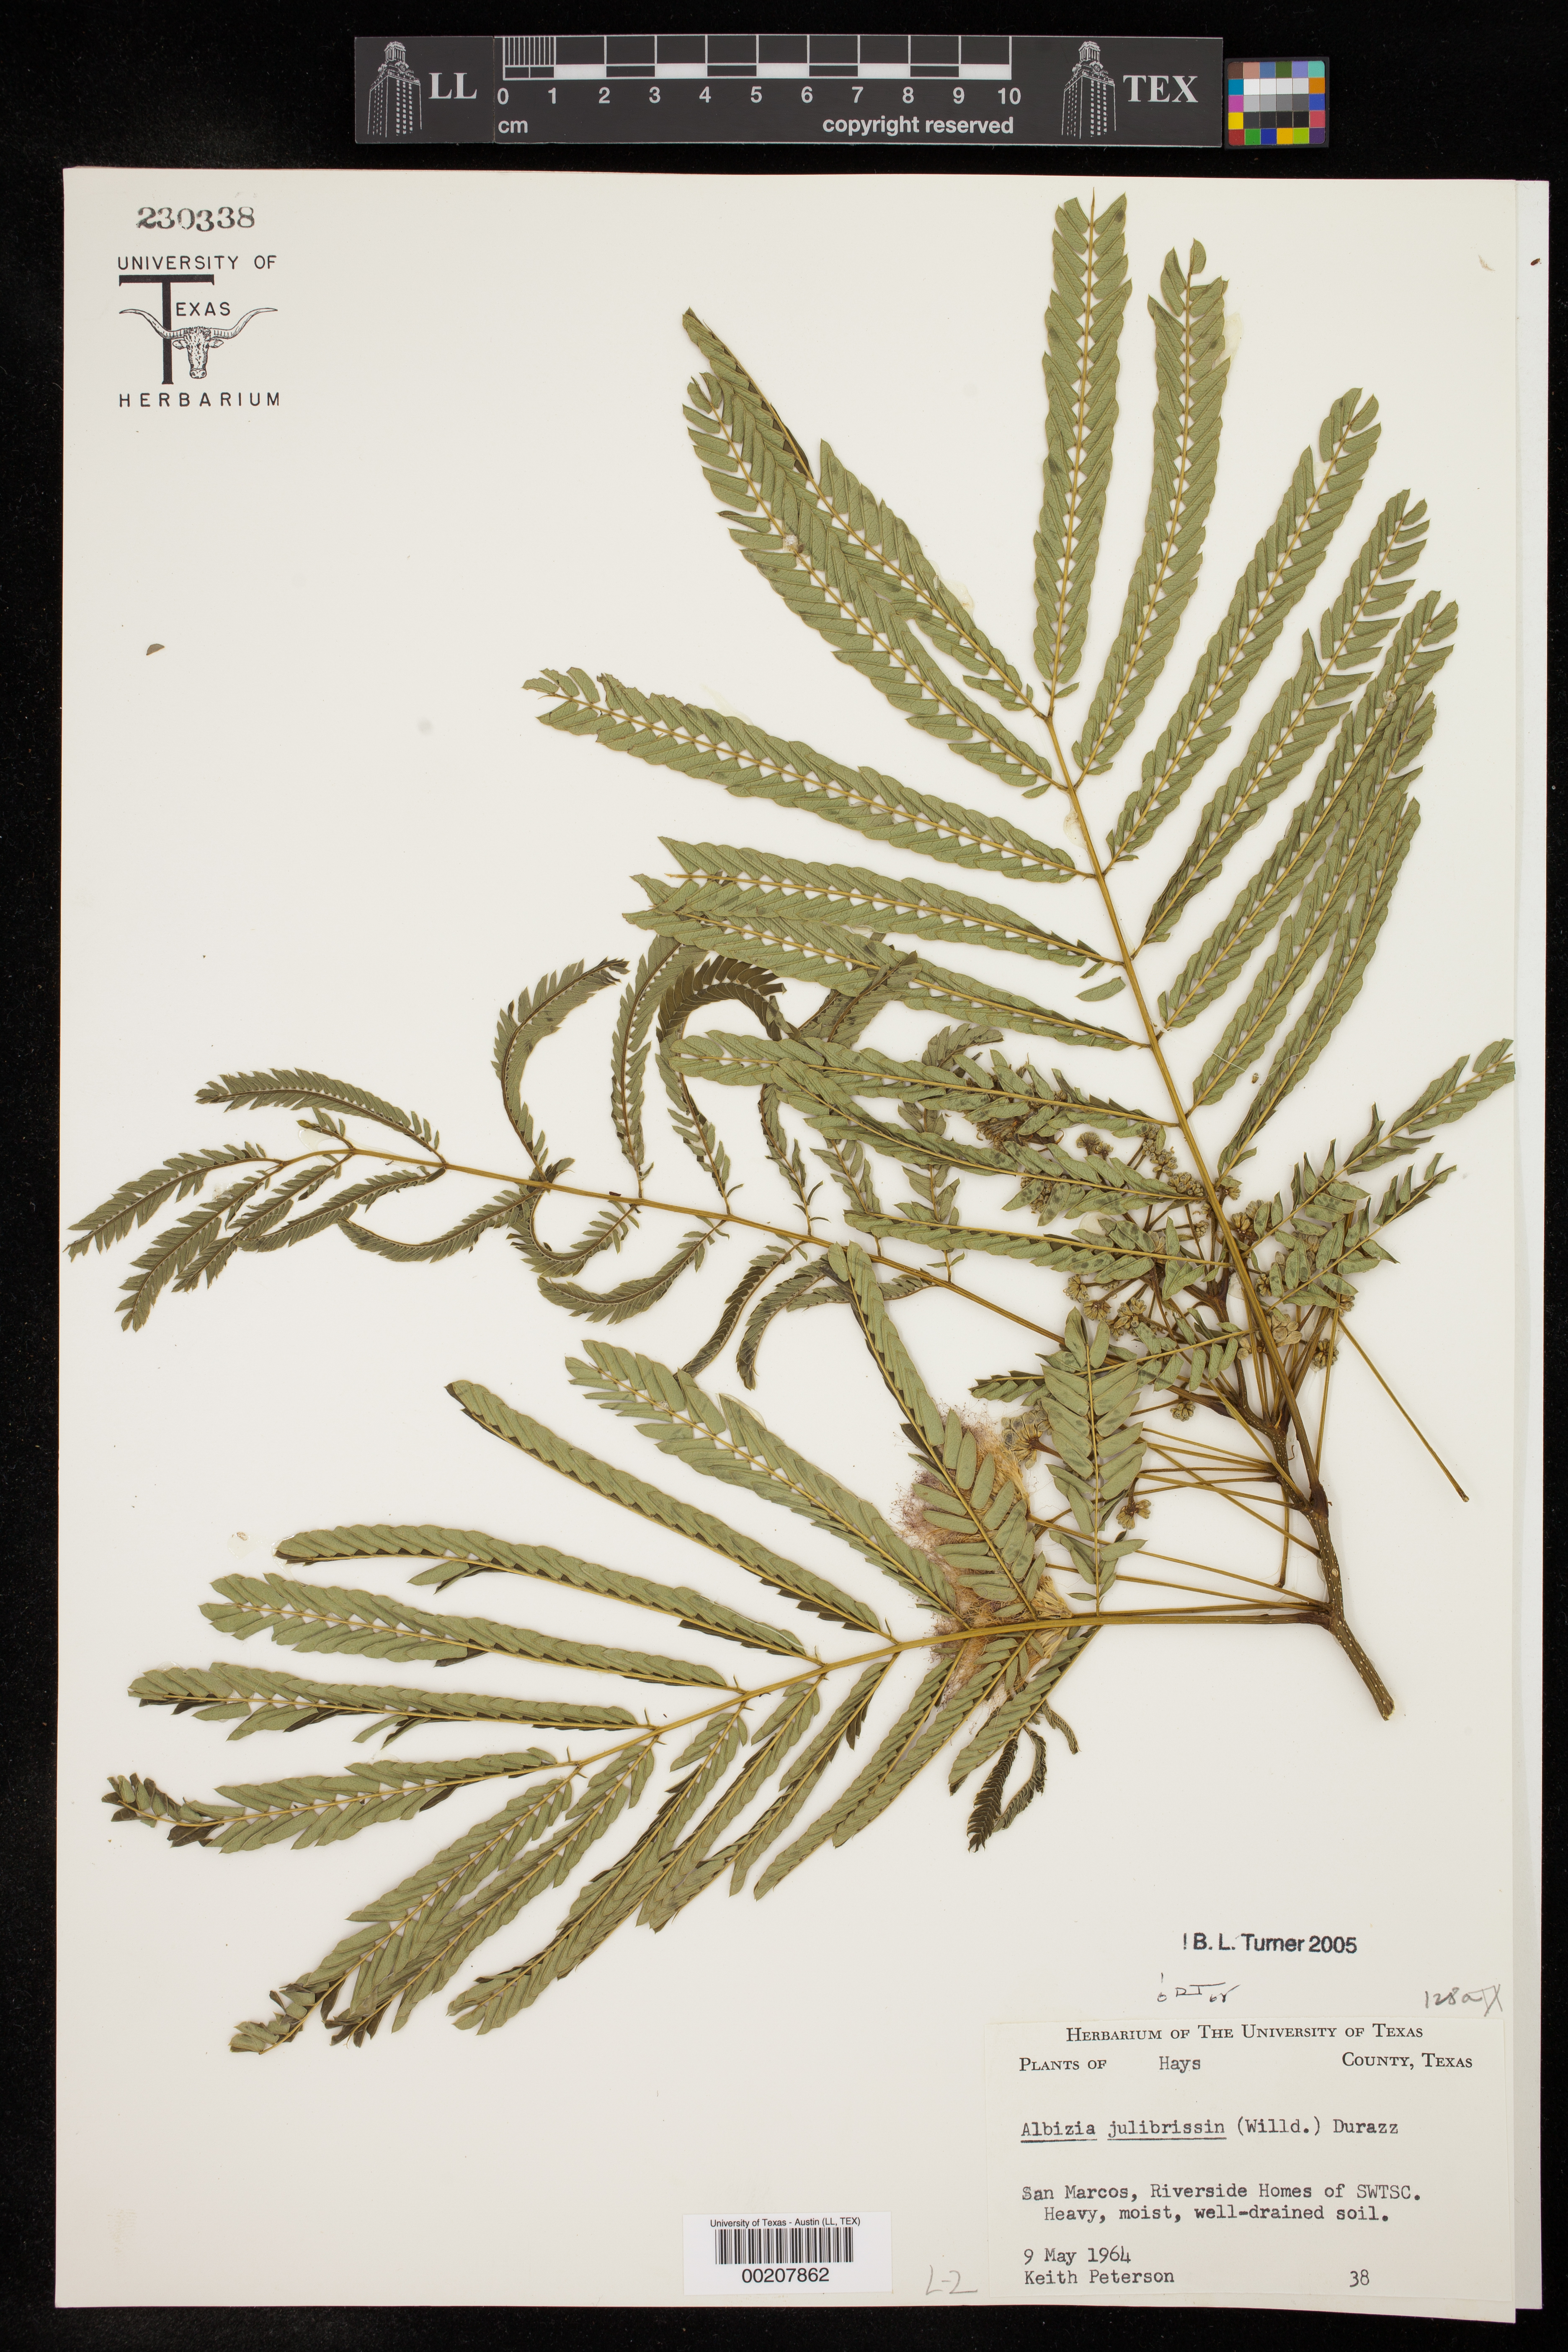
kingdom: Plantae
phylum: Tracheophyta
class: Magnoliopsida
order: Fabales
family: Fabaceae
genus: Albizia
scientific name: Albizia julibrissin
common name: Silktree
